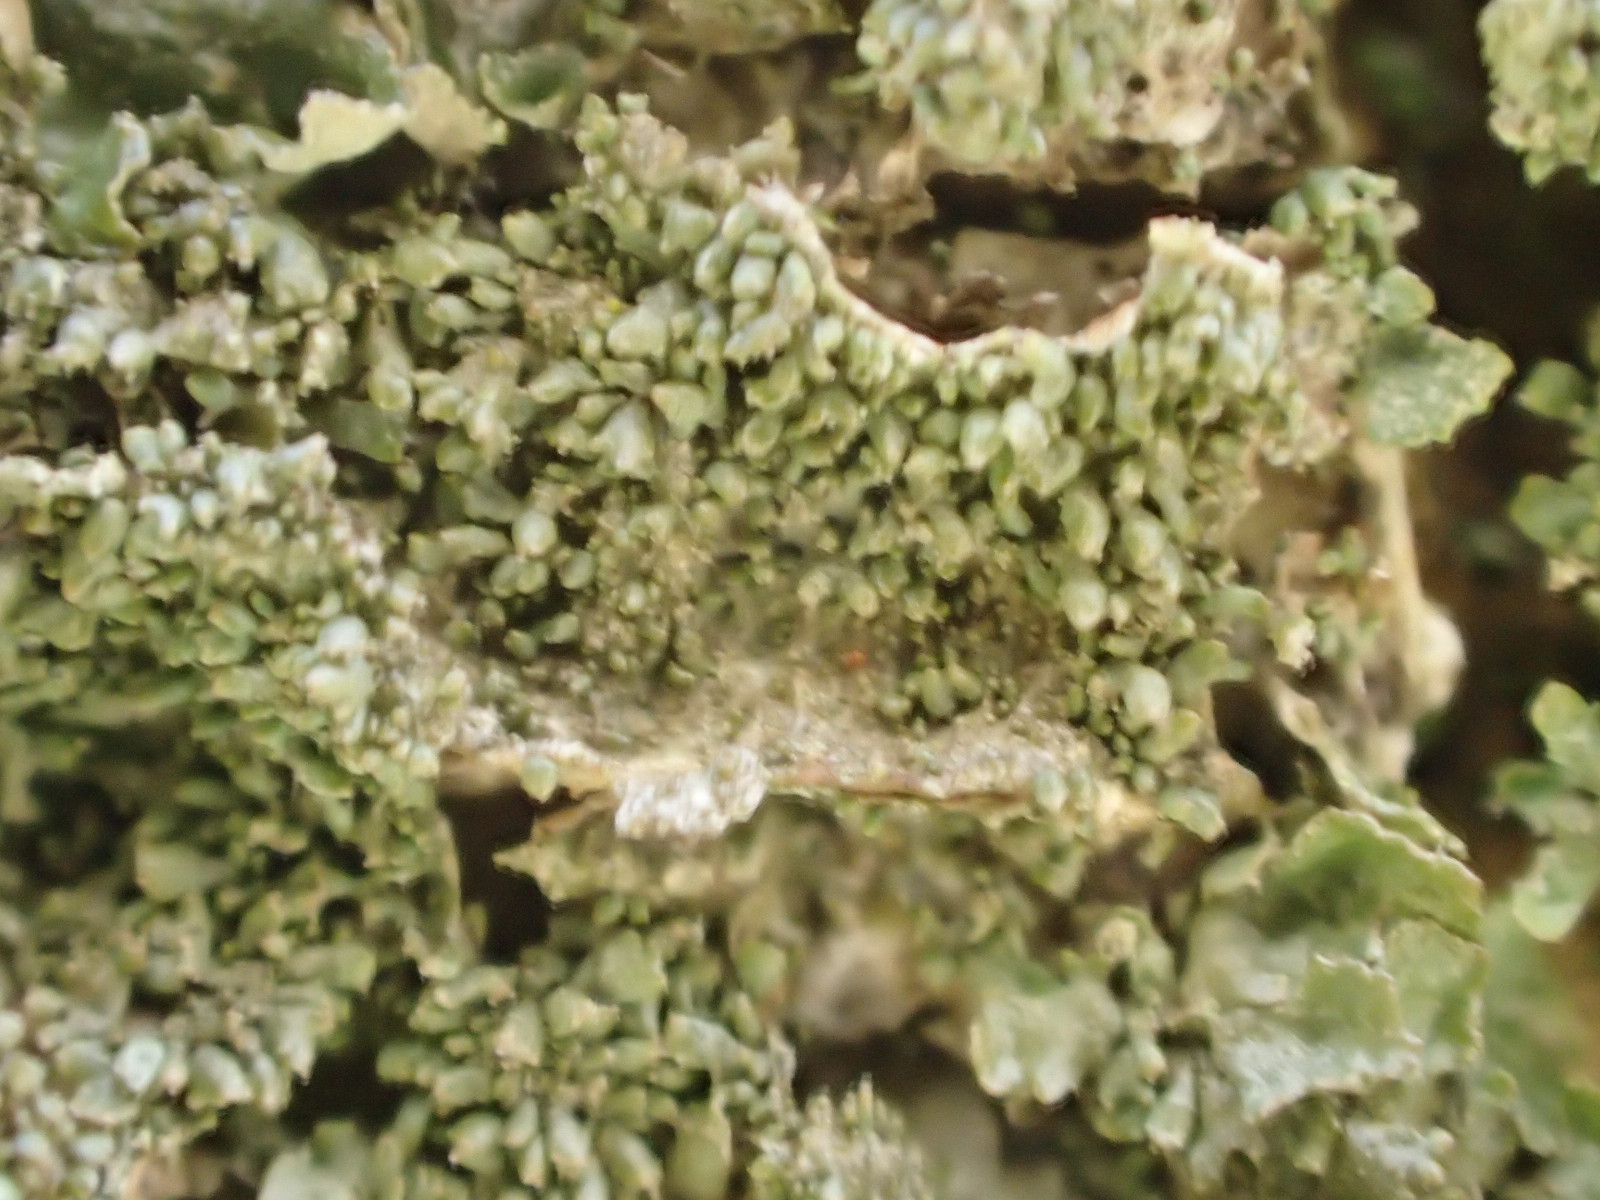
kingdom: Fungi
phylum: Ascomycota
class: Lecanoromycetes
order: Lecanorales
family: Parmeliaceae
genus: Melanohalea
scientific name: Melanohalea exasperatula
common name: kølle-skållav
